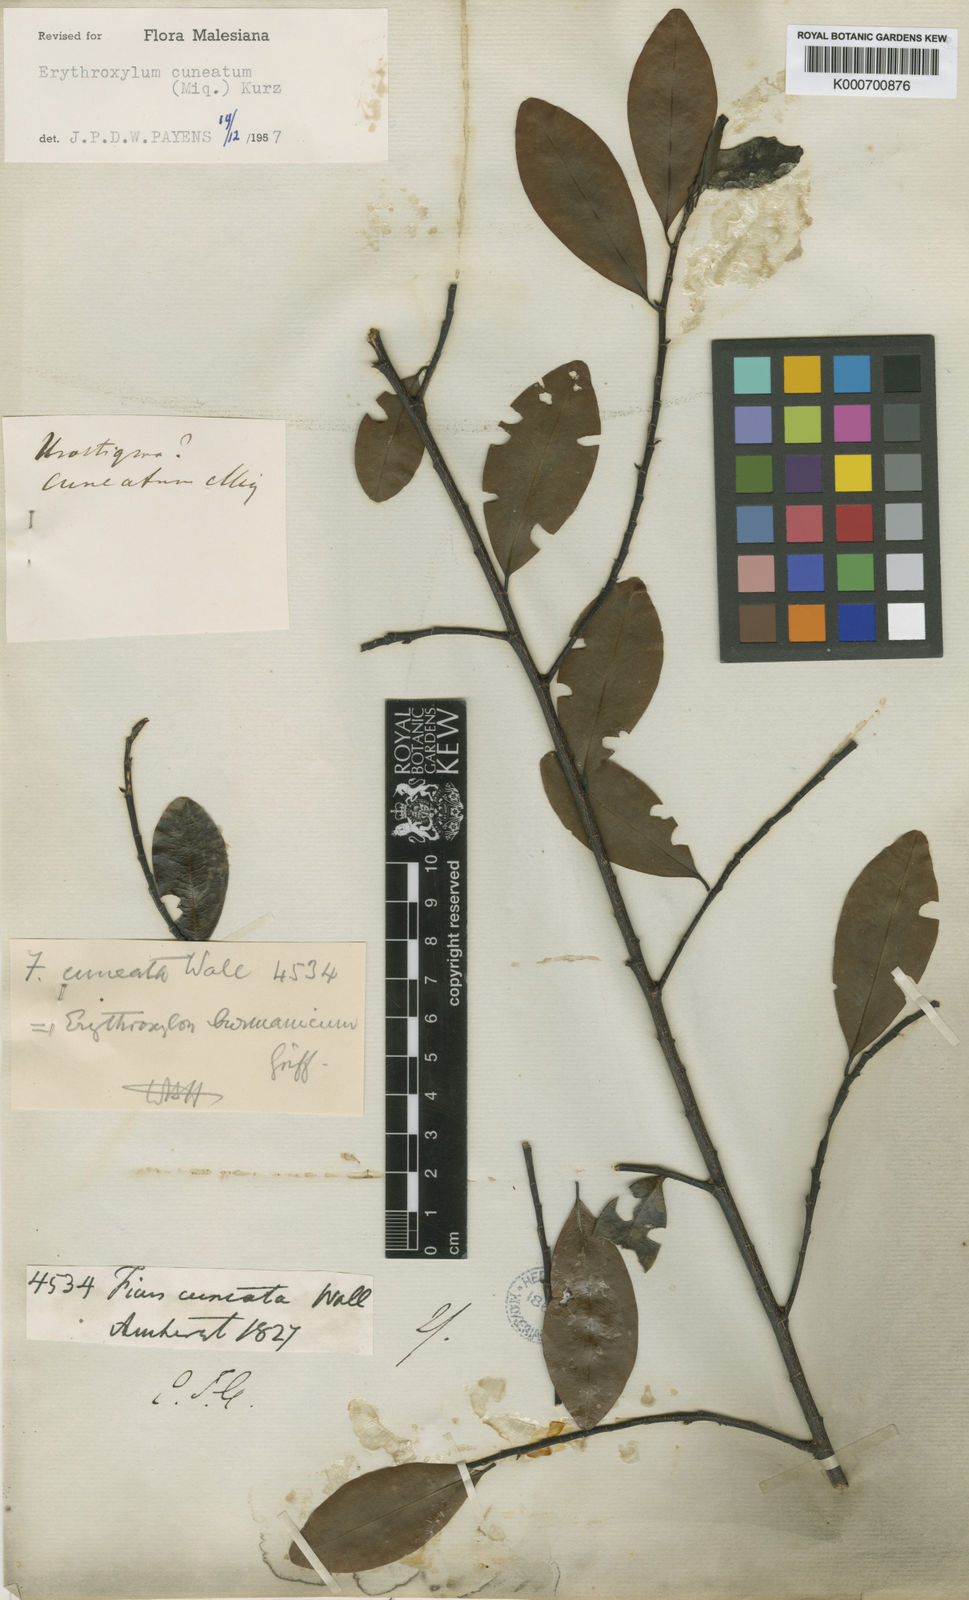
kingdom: Plantae
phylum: Tracheophyta
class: Magnoliopsida
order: Malpighiales
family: Erythroxylaceae
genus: Erythroxylum
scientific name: Erythroxylum cuneatum
